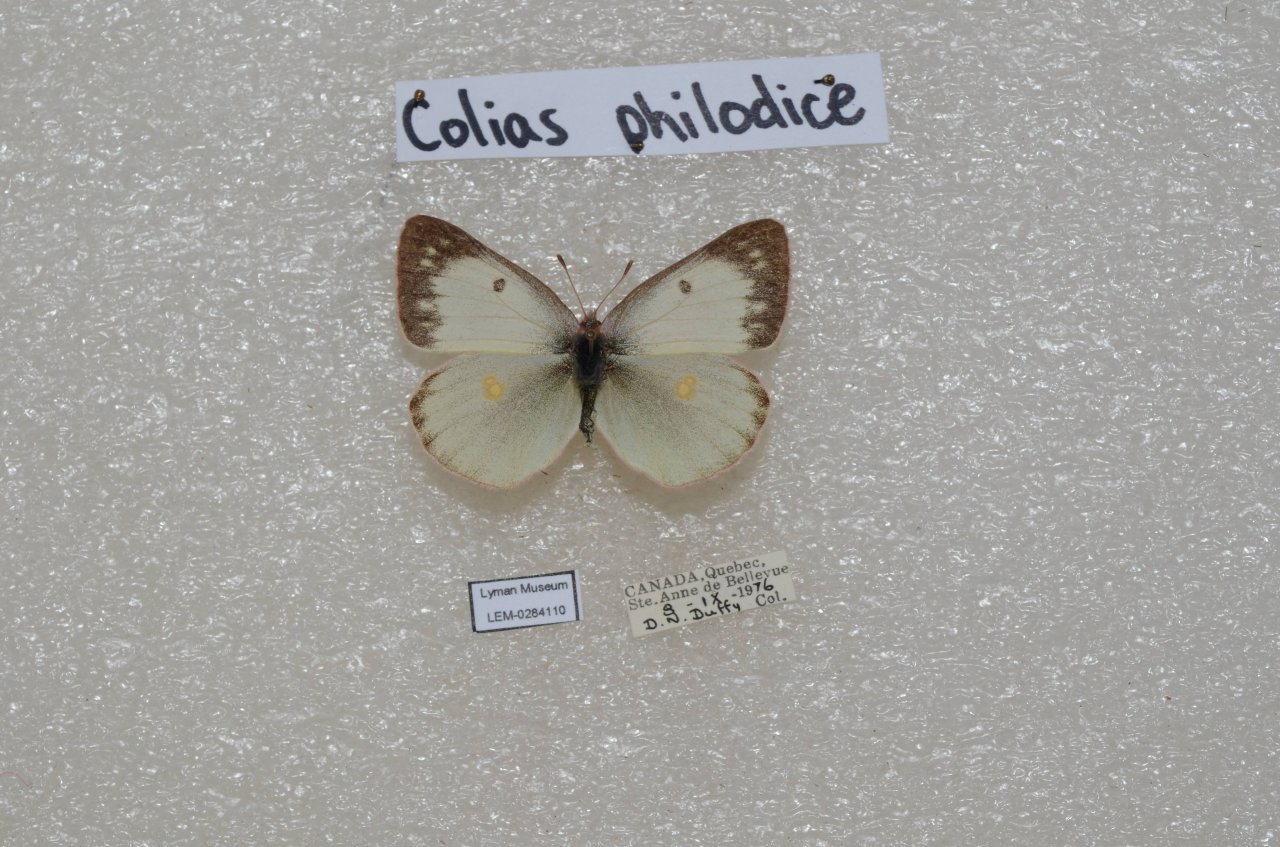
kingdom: Animalia
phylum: Arthropoda
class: Insecta
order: Lepidoptera
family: Pieridae
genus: Colias
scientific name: Colias philodice
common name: Clouded Sulphur
